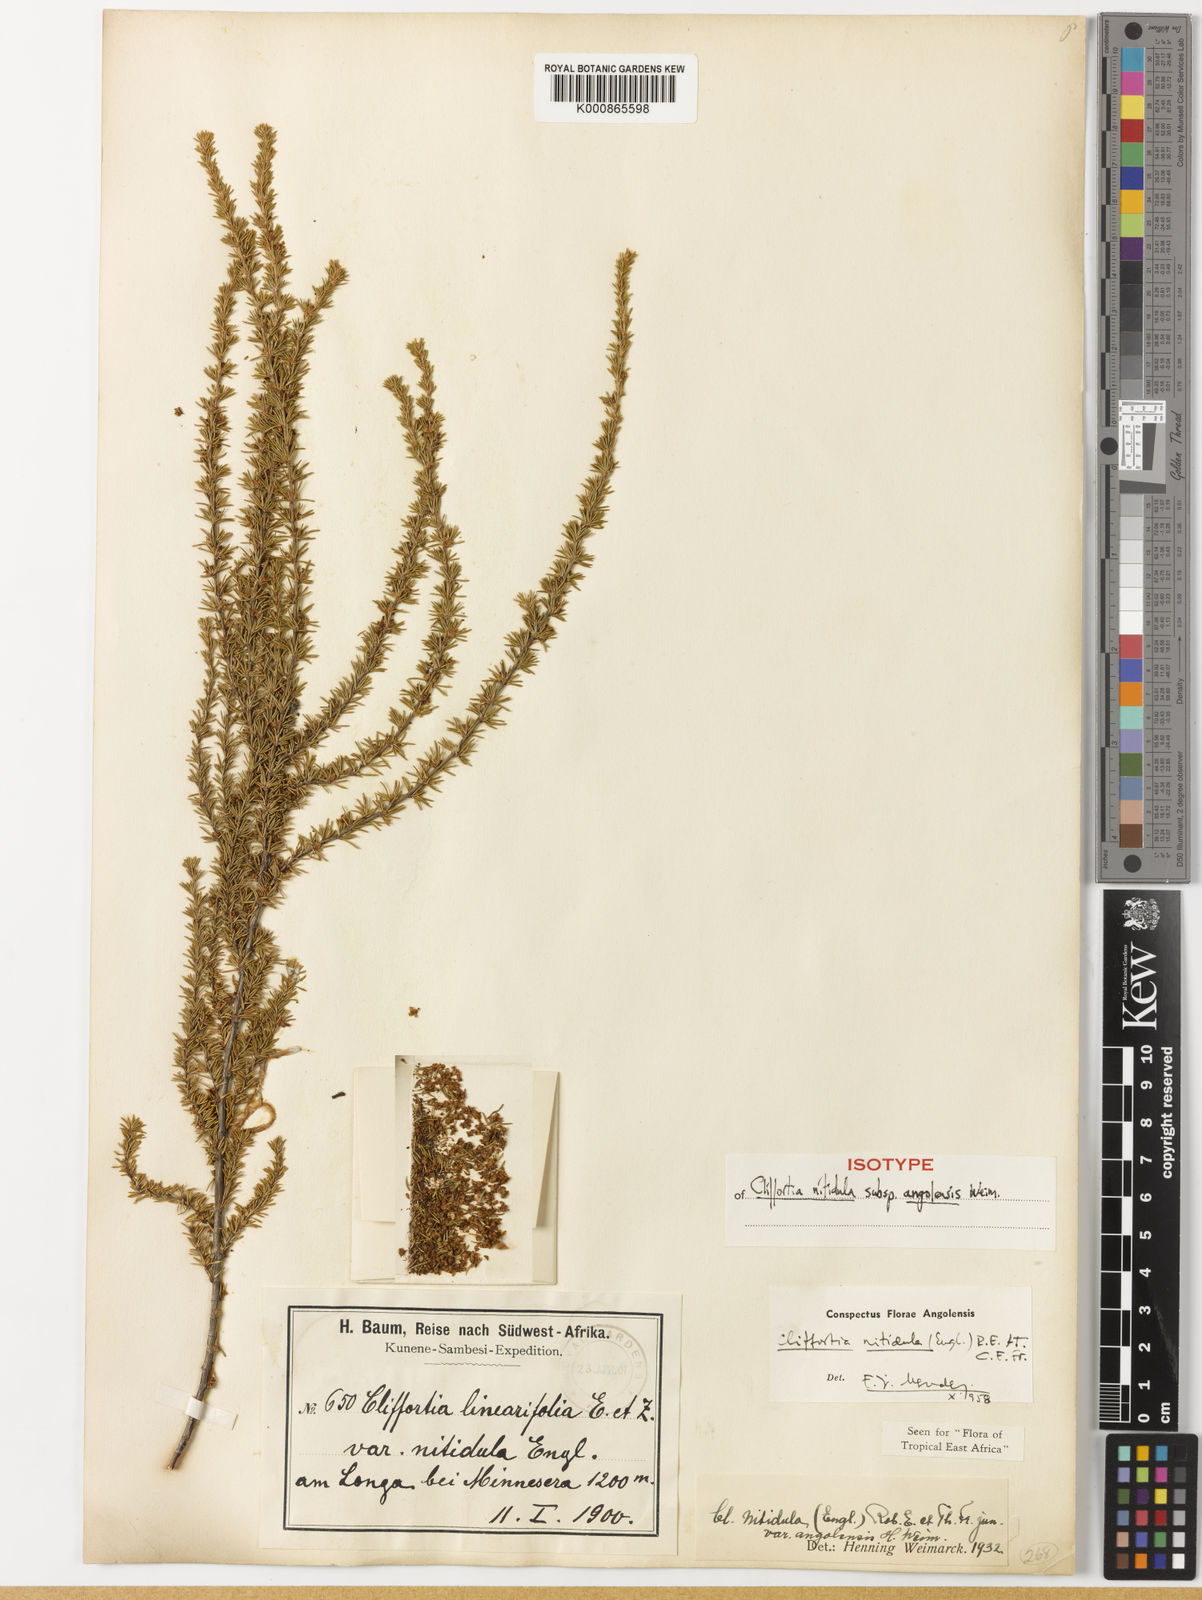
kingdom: Plantae
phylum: Tracheophyta
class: Magnoliopsida
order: Rosales
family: Rosaceae
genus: Cliffortia
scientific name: Cliffortia linearifolia
